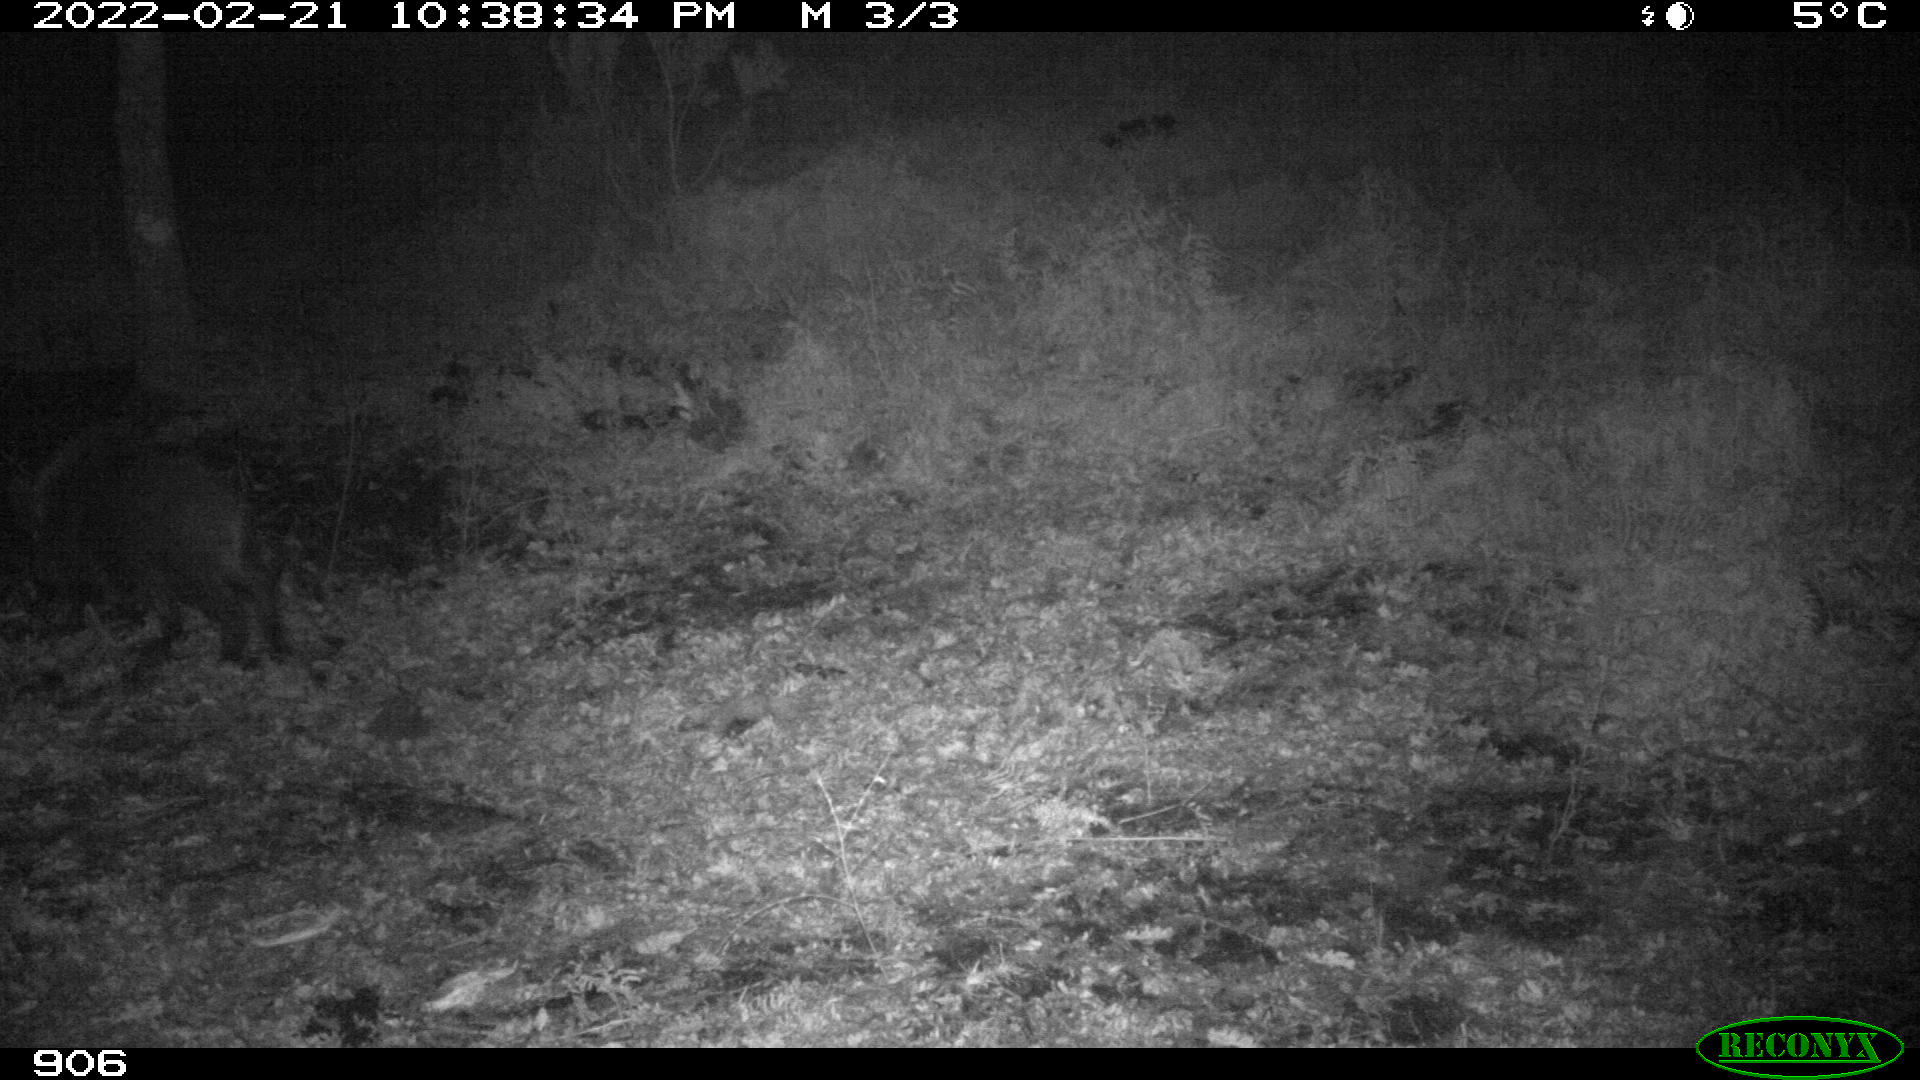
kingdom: Animalia
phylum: Chordata
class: Mammalia
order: Artiodactyla
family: Suidae
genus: Sus
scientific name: Sus scrofa
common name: Wild boar
